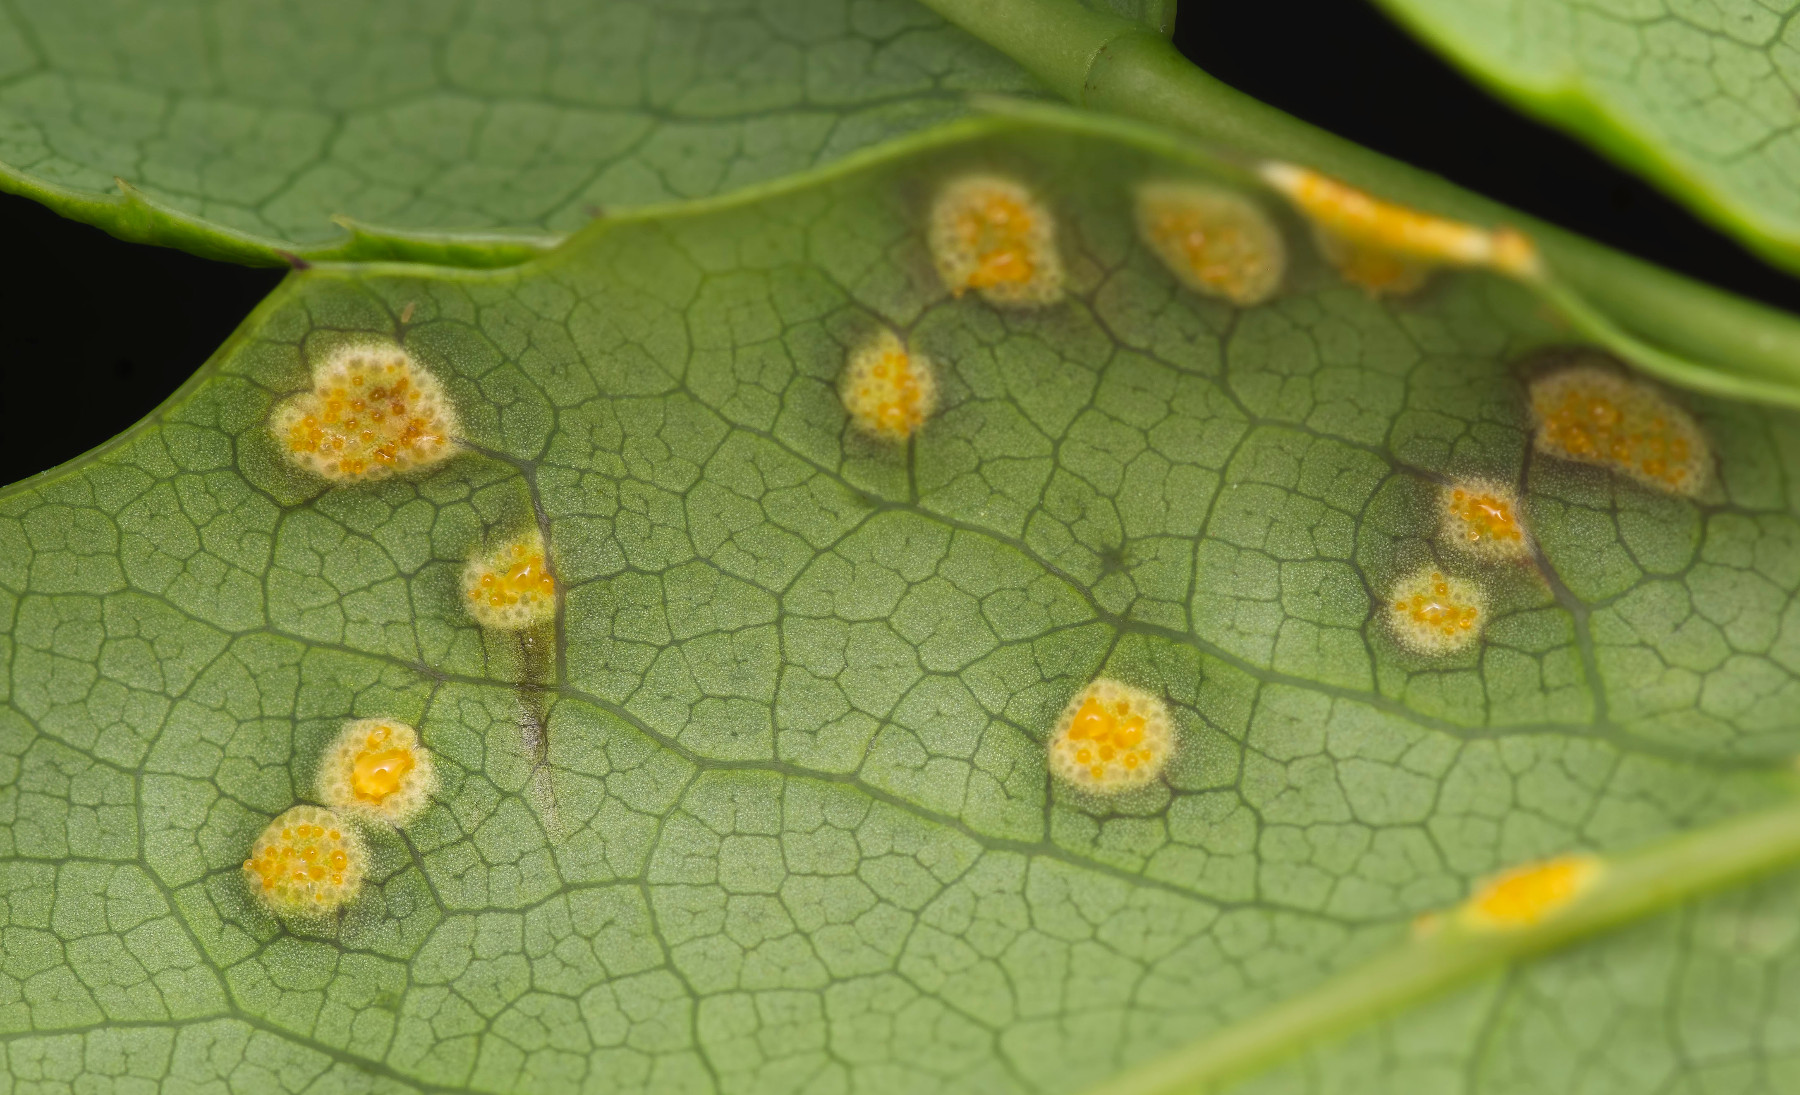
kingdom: Fungi
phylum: Basidiomycota
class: Pucciniomycetes
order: Pucciniales
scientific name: Pucciniales
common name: rustsvampeordenen
